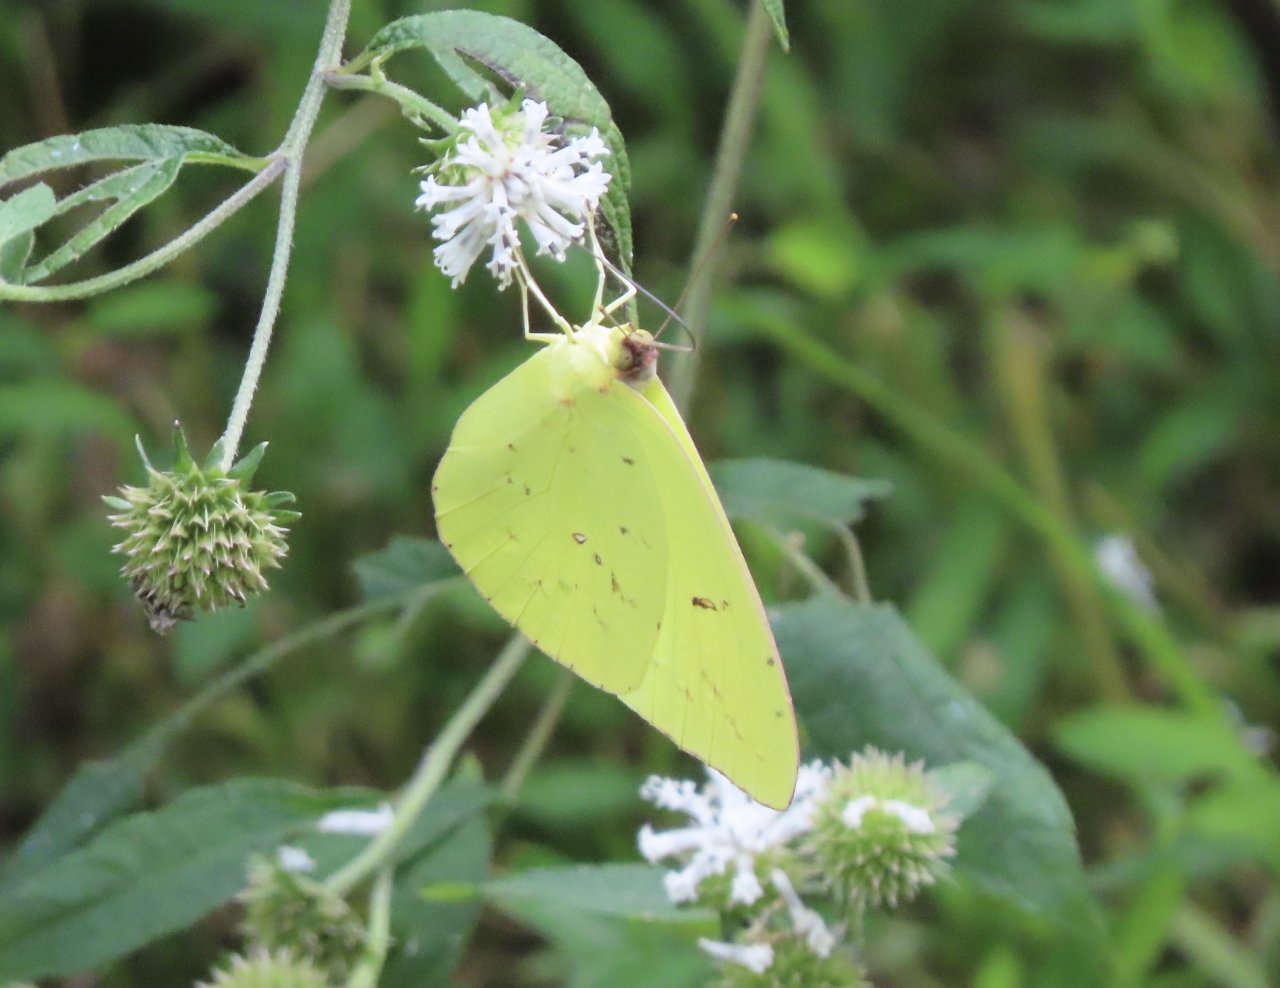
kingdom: Animalia
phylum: Arthropoda
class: Insecta
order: Lepidoptera
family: Pieridae
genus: Phoebis
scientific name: Phoebis sennae
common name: Cloudless Sulphur
